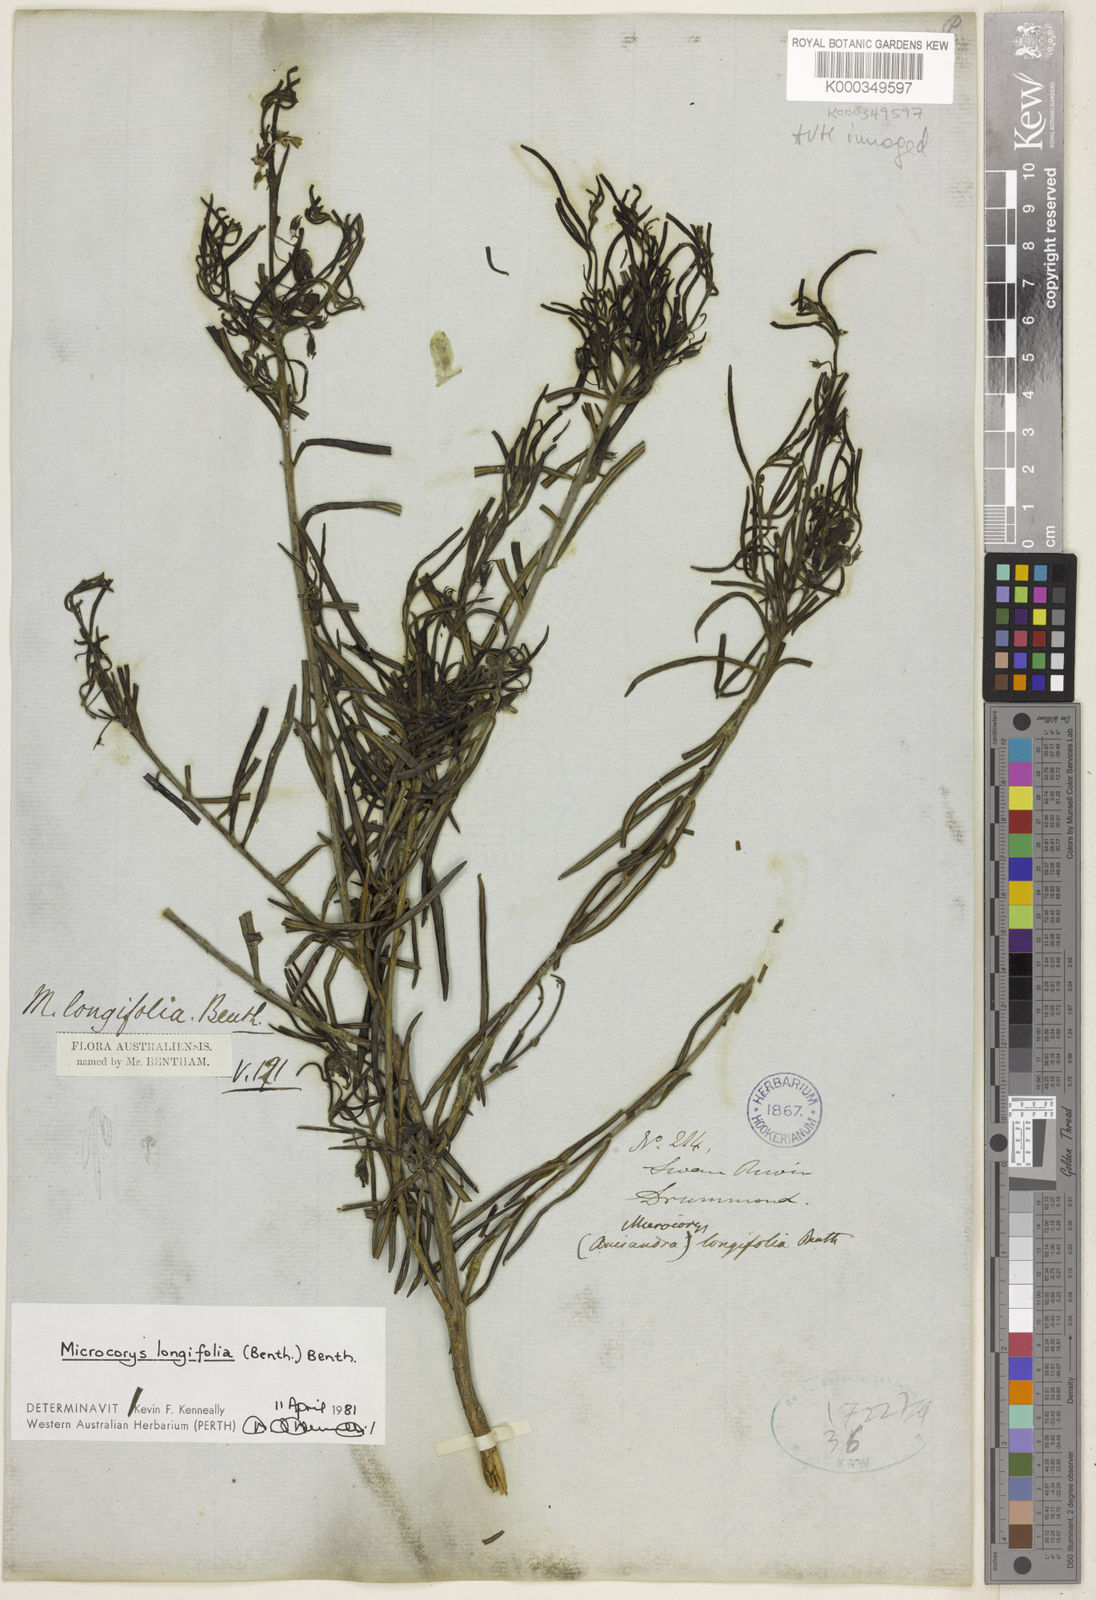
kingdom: Plantae
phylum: Tracheophyta
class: Magnoliopsida
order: Lamiales
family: Lamiaceae
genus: Microcorys
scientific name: Microcorys longifolia
